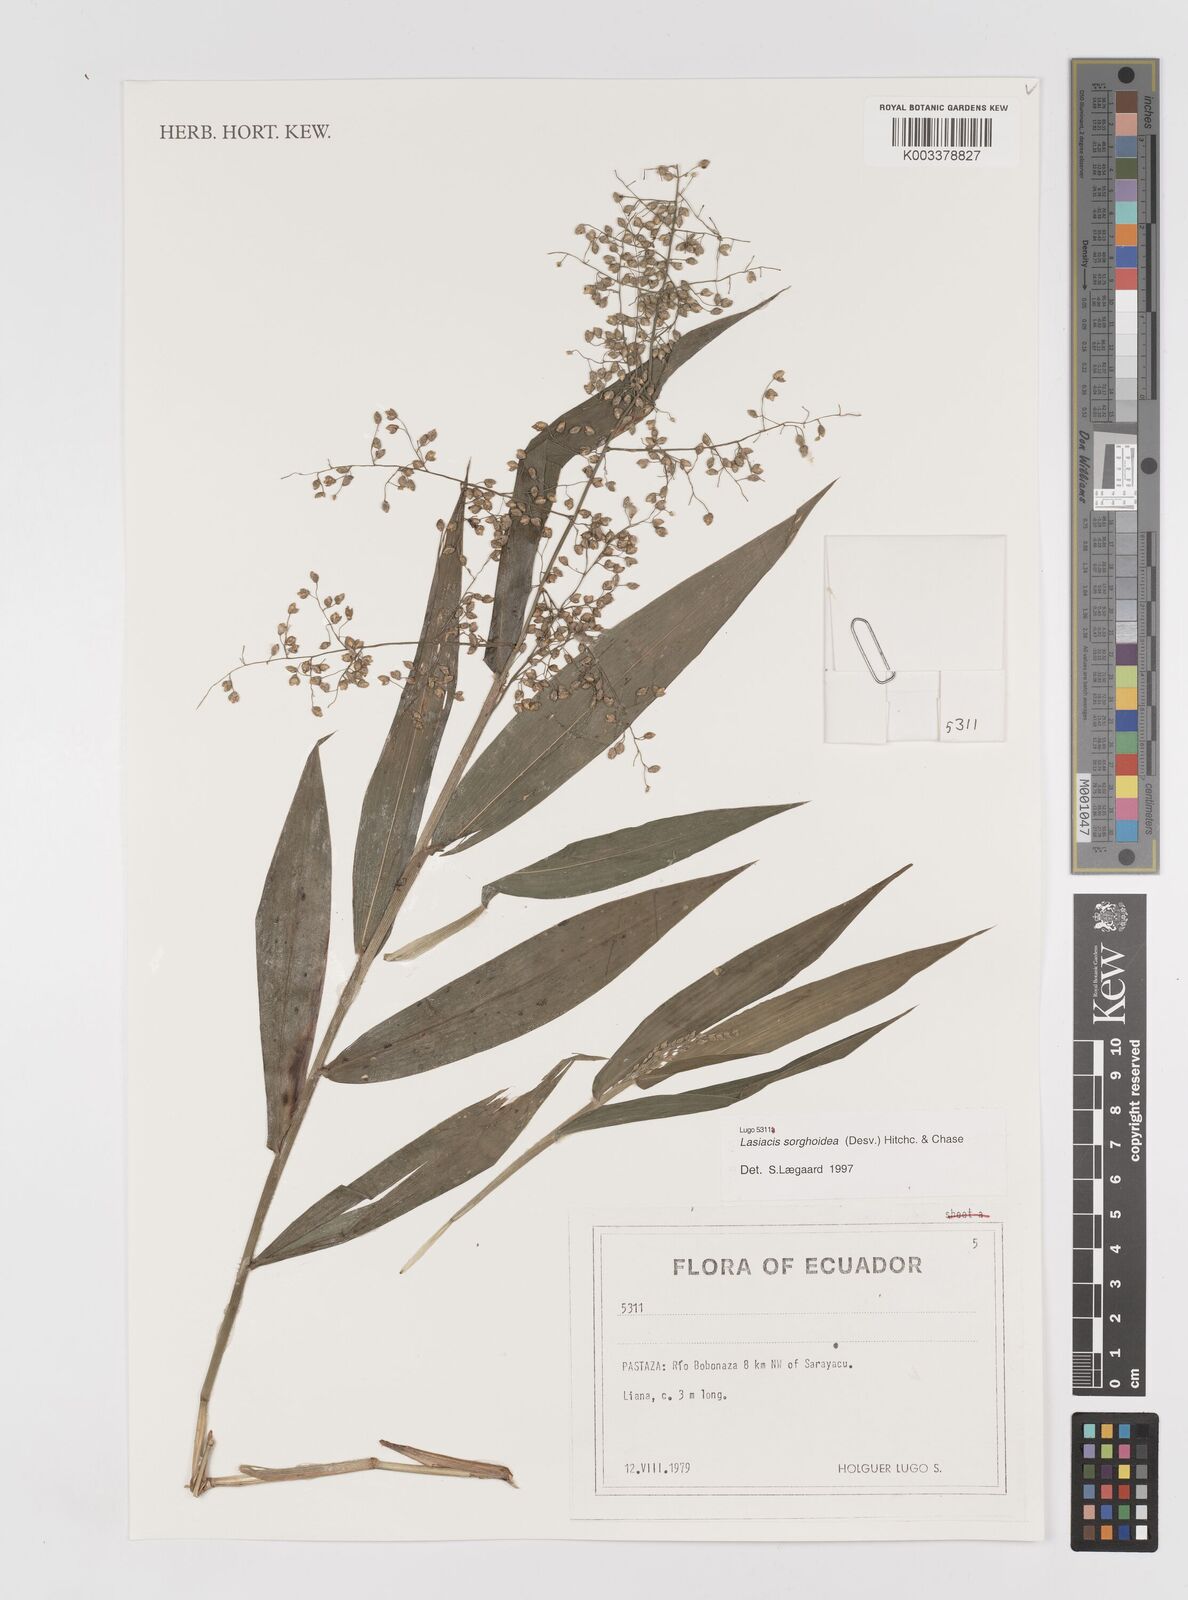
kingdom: Plantae
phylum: Tracheophyta
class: Liliopsida
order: Poales
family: Poaceae
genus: Lasiacis
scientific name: Lasiacis maculata
